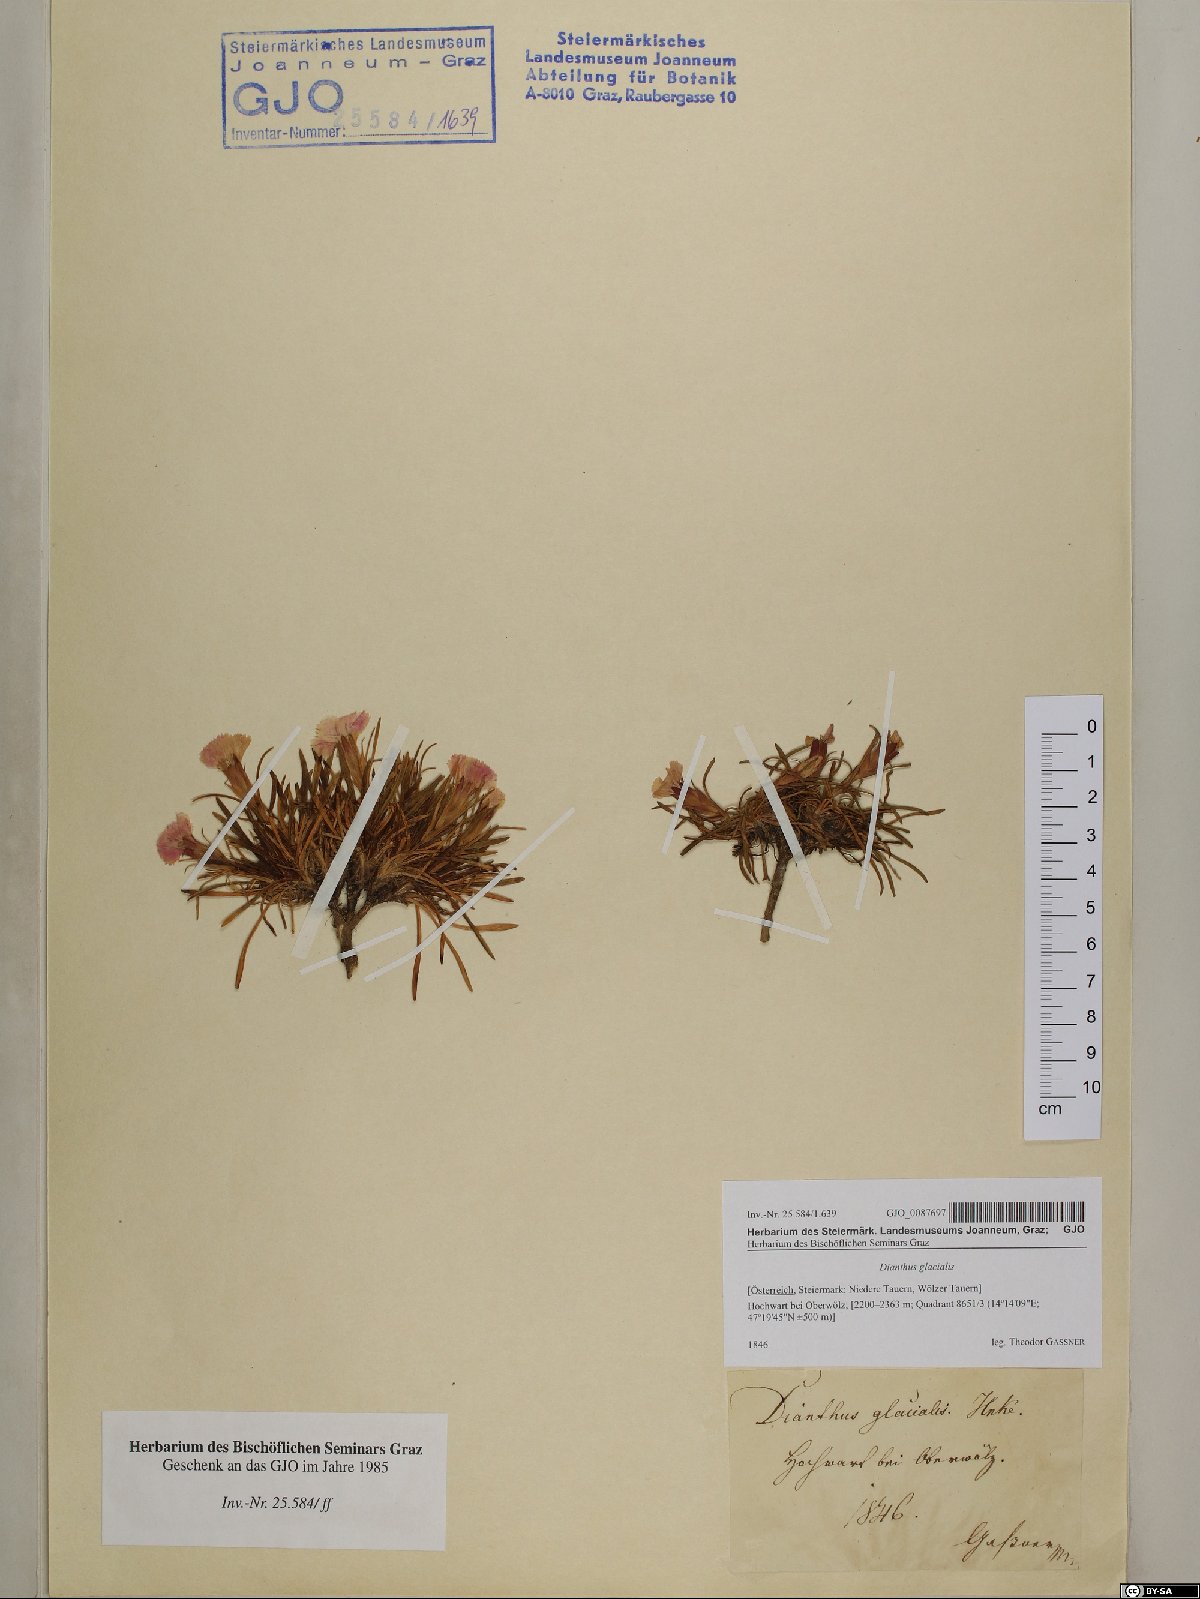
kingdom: Plantae
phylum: Tracheophyta
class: Magnoliopsida
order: Caryophyllales
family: Caryophyllaceae
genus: Dianthus
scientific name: Dianthus glacialis
